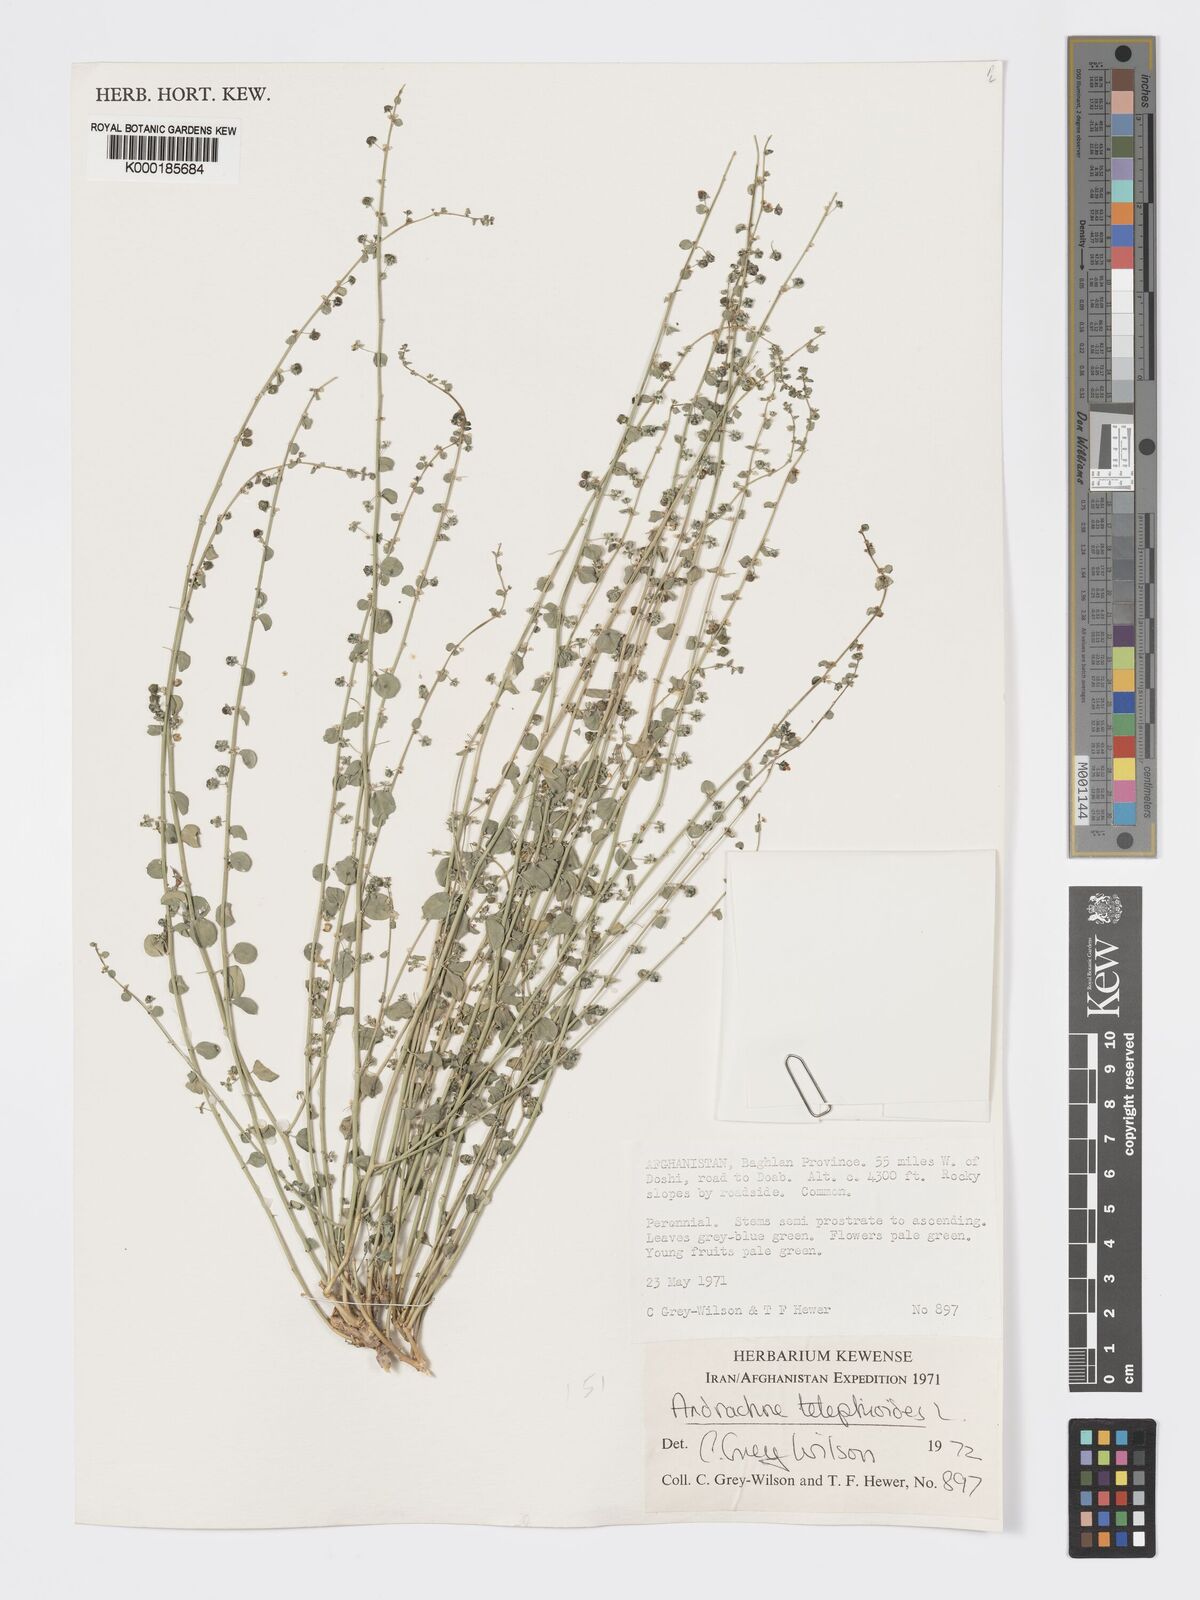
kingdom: Plantae
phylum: Tracheophyta
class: Magnoliopsida
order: Malpighiales
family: Phyllanthaceae
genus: Andrachne
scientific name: Andrachne telephioides
